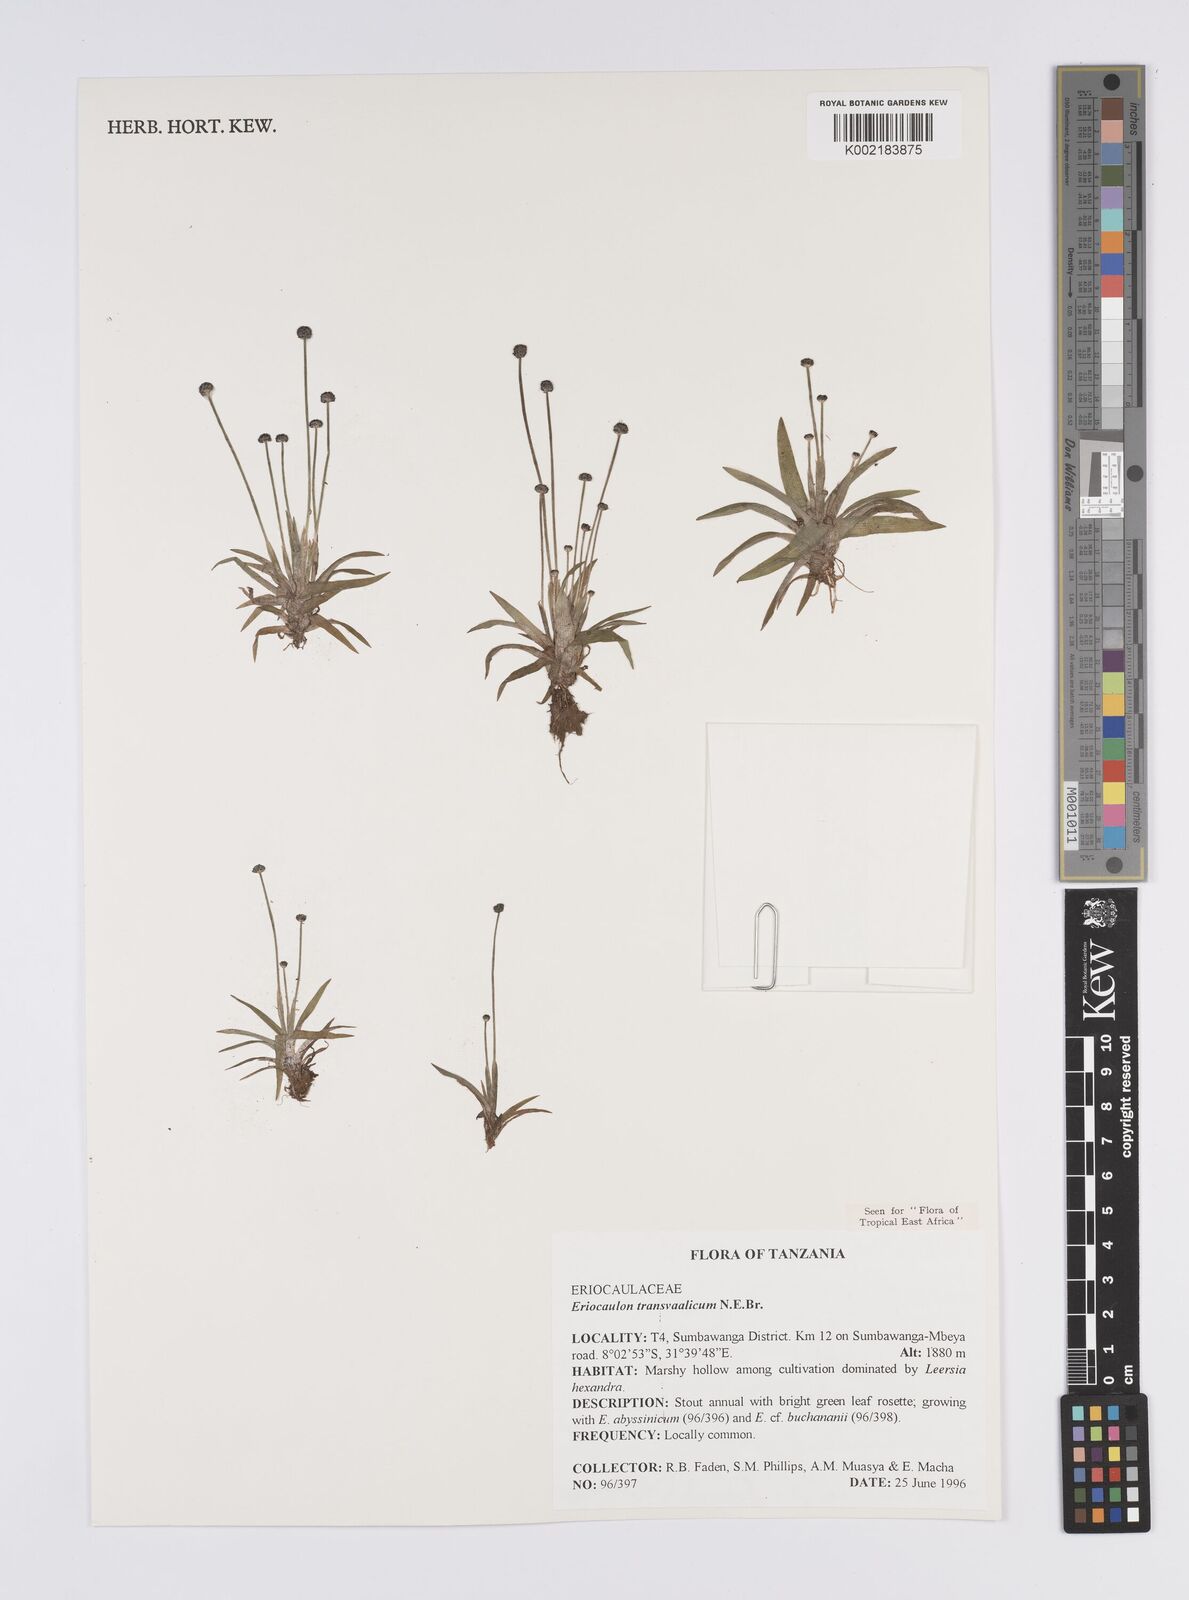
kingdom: Plantae
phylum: Tracheophyta
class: Liliopsida
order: Poales
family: Eriocaulaceae
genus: Eriocaulon
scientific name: Eriocaulon transvaalicum
